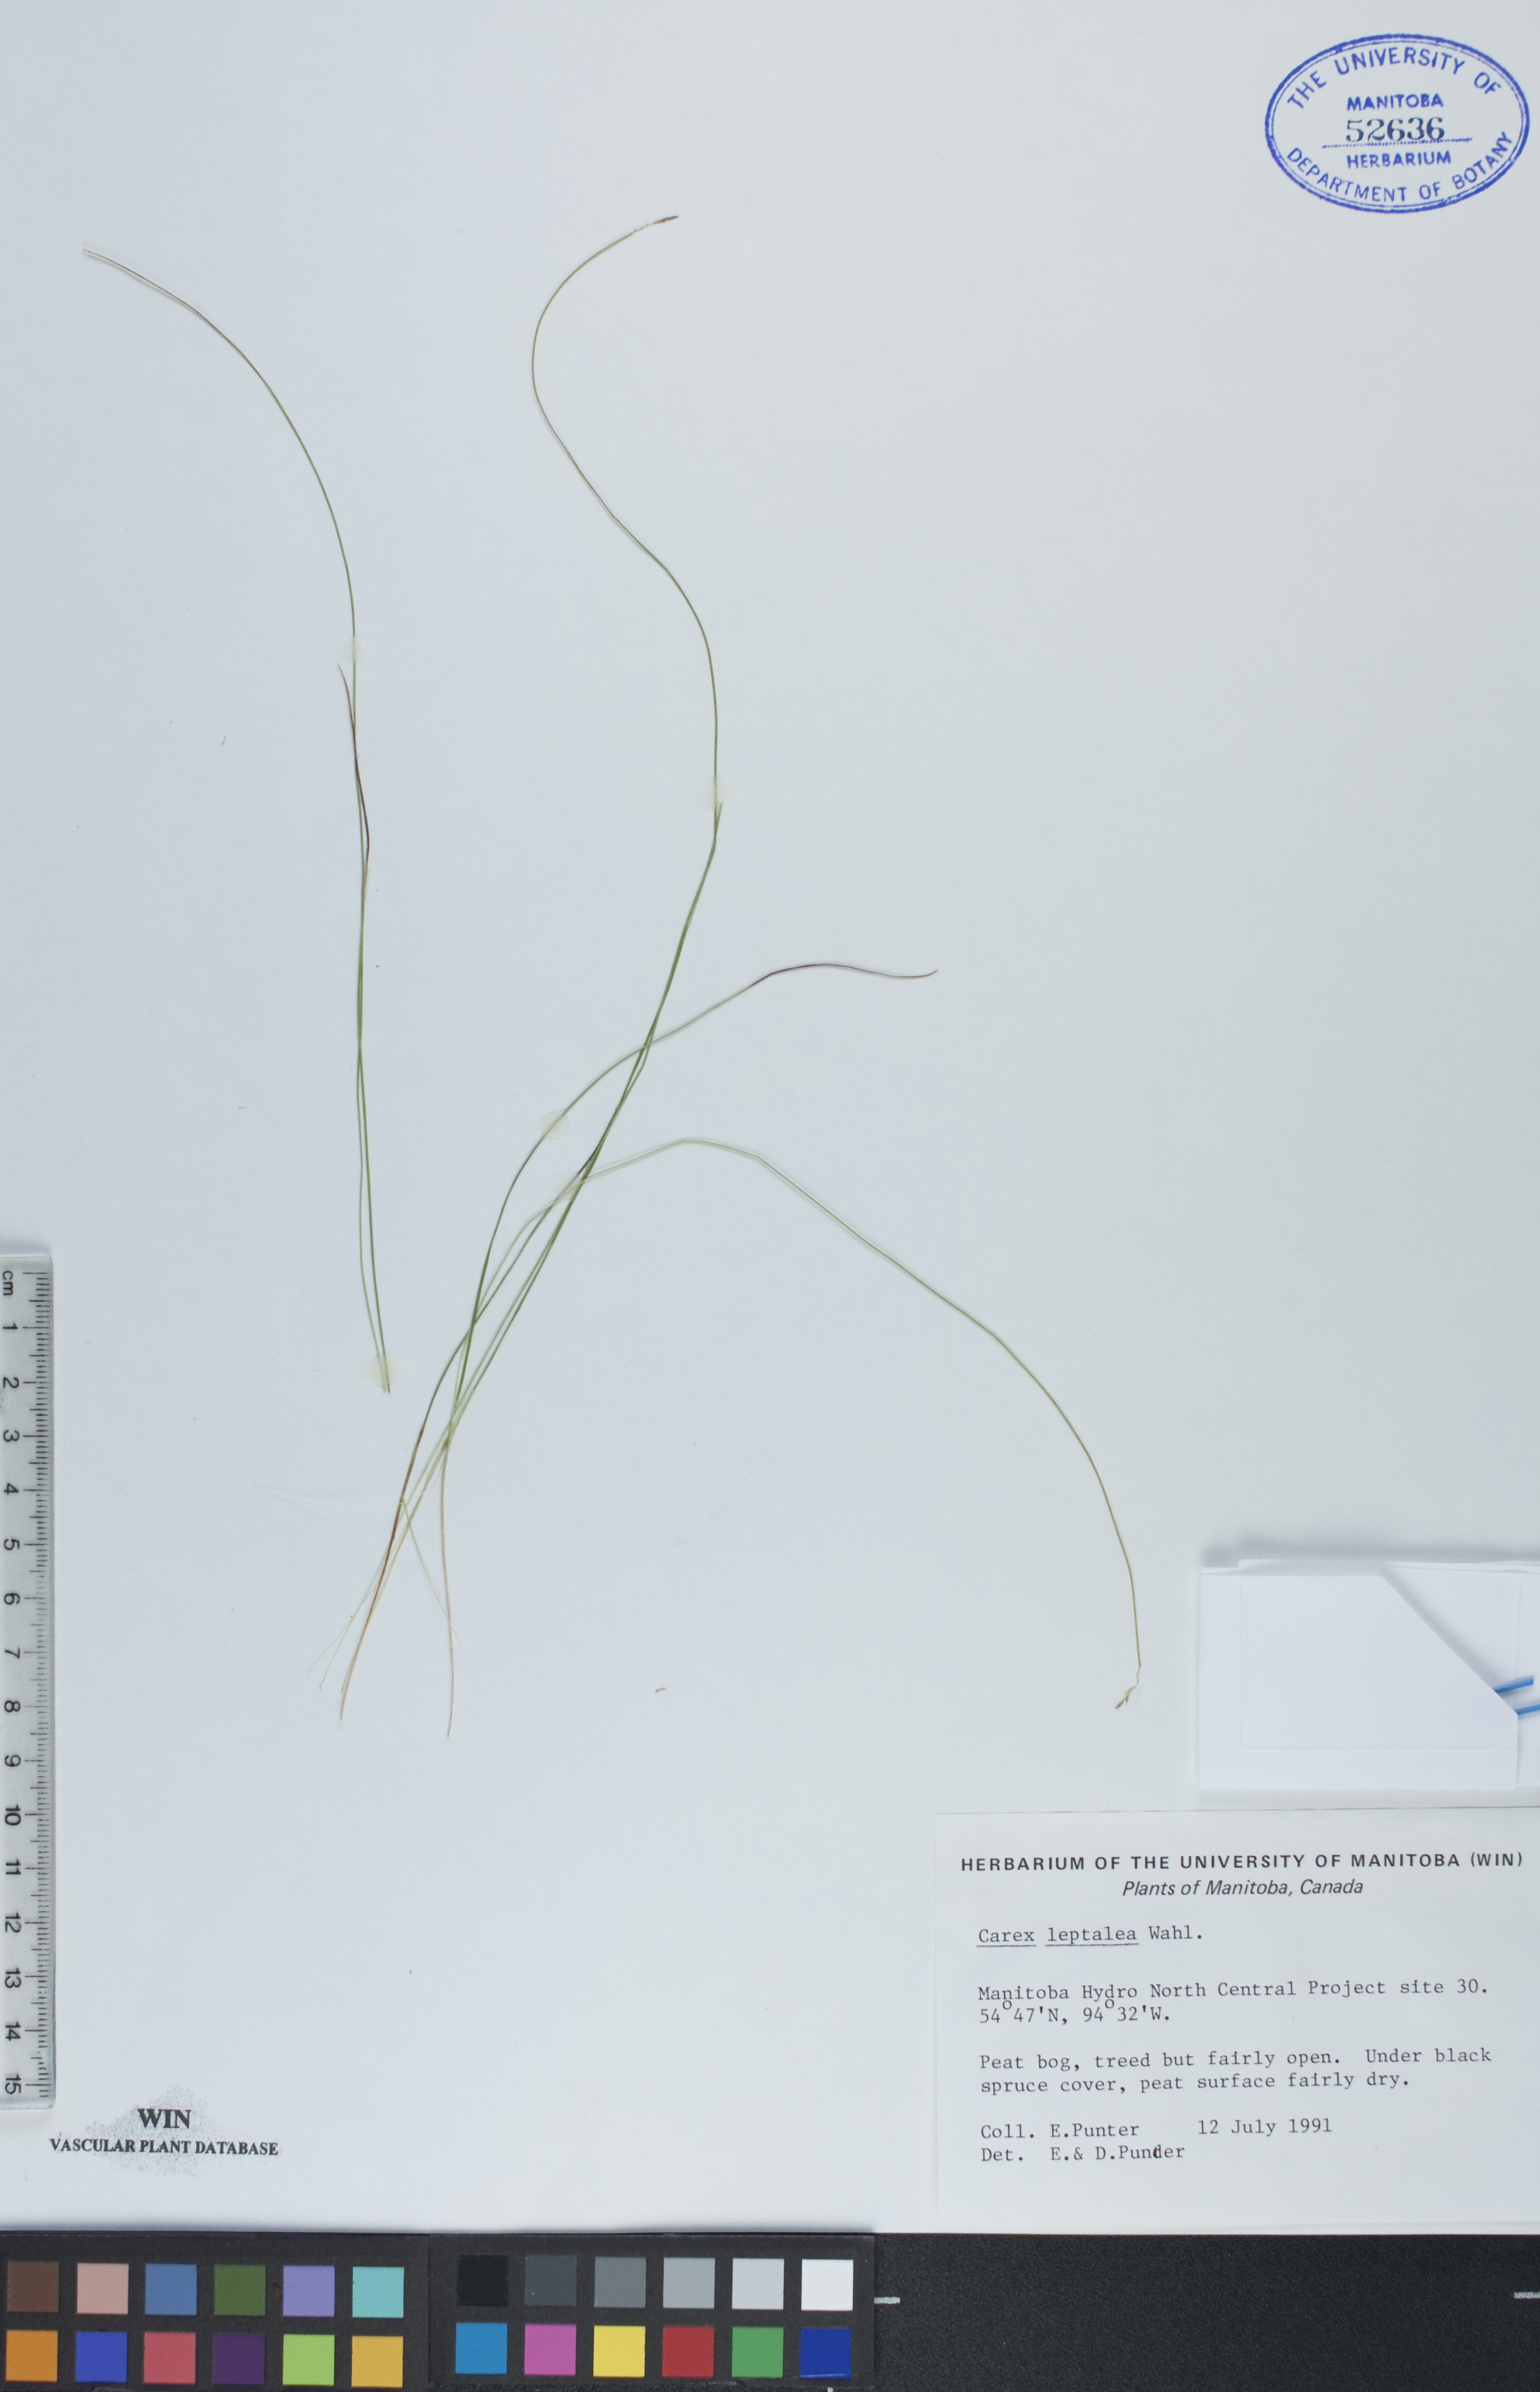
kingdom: Plantae
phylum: Tracheophyta
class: Liliopsida
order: Poales
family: Cyperaceae
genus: Carex
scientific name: Carex leptalea
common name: Bristly-stalked sedge
